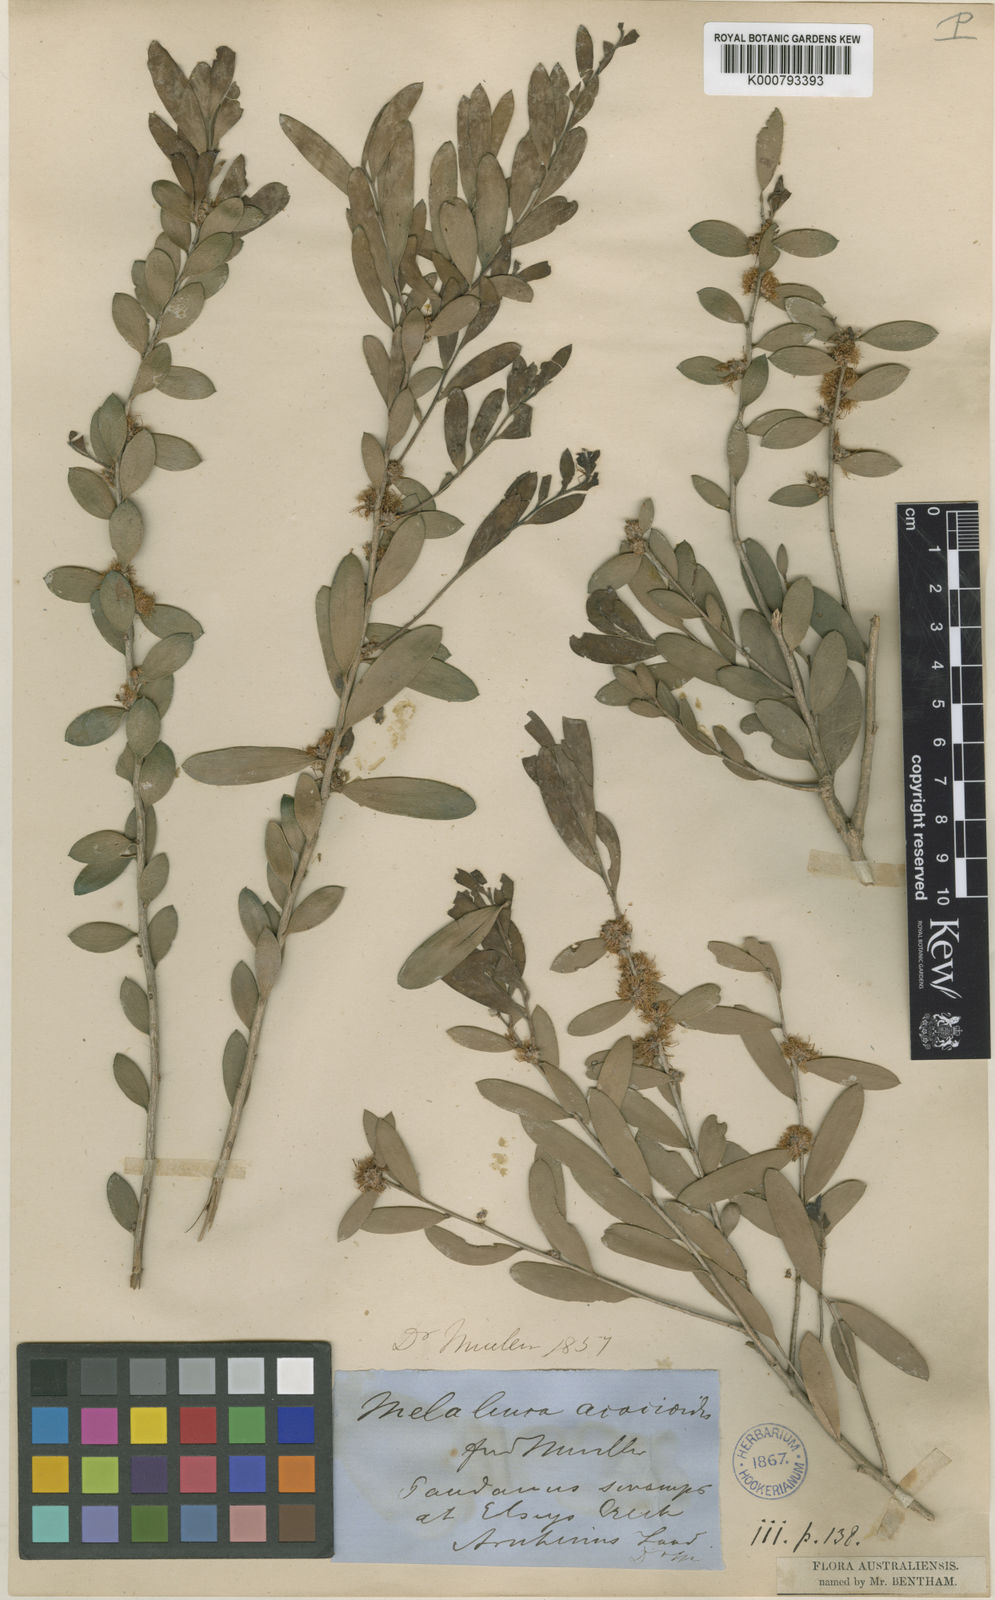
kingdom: Plantae
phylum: Tracheophyta
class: Magnoliopsida
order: Myrtales
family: Myrtaceae
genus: Melaleuca
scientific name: Melaleuca acacioides
